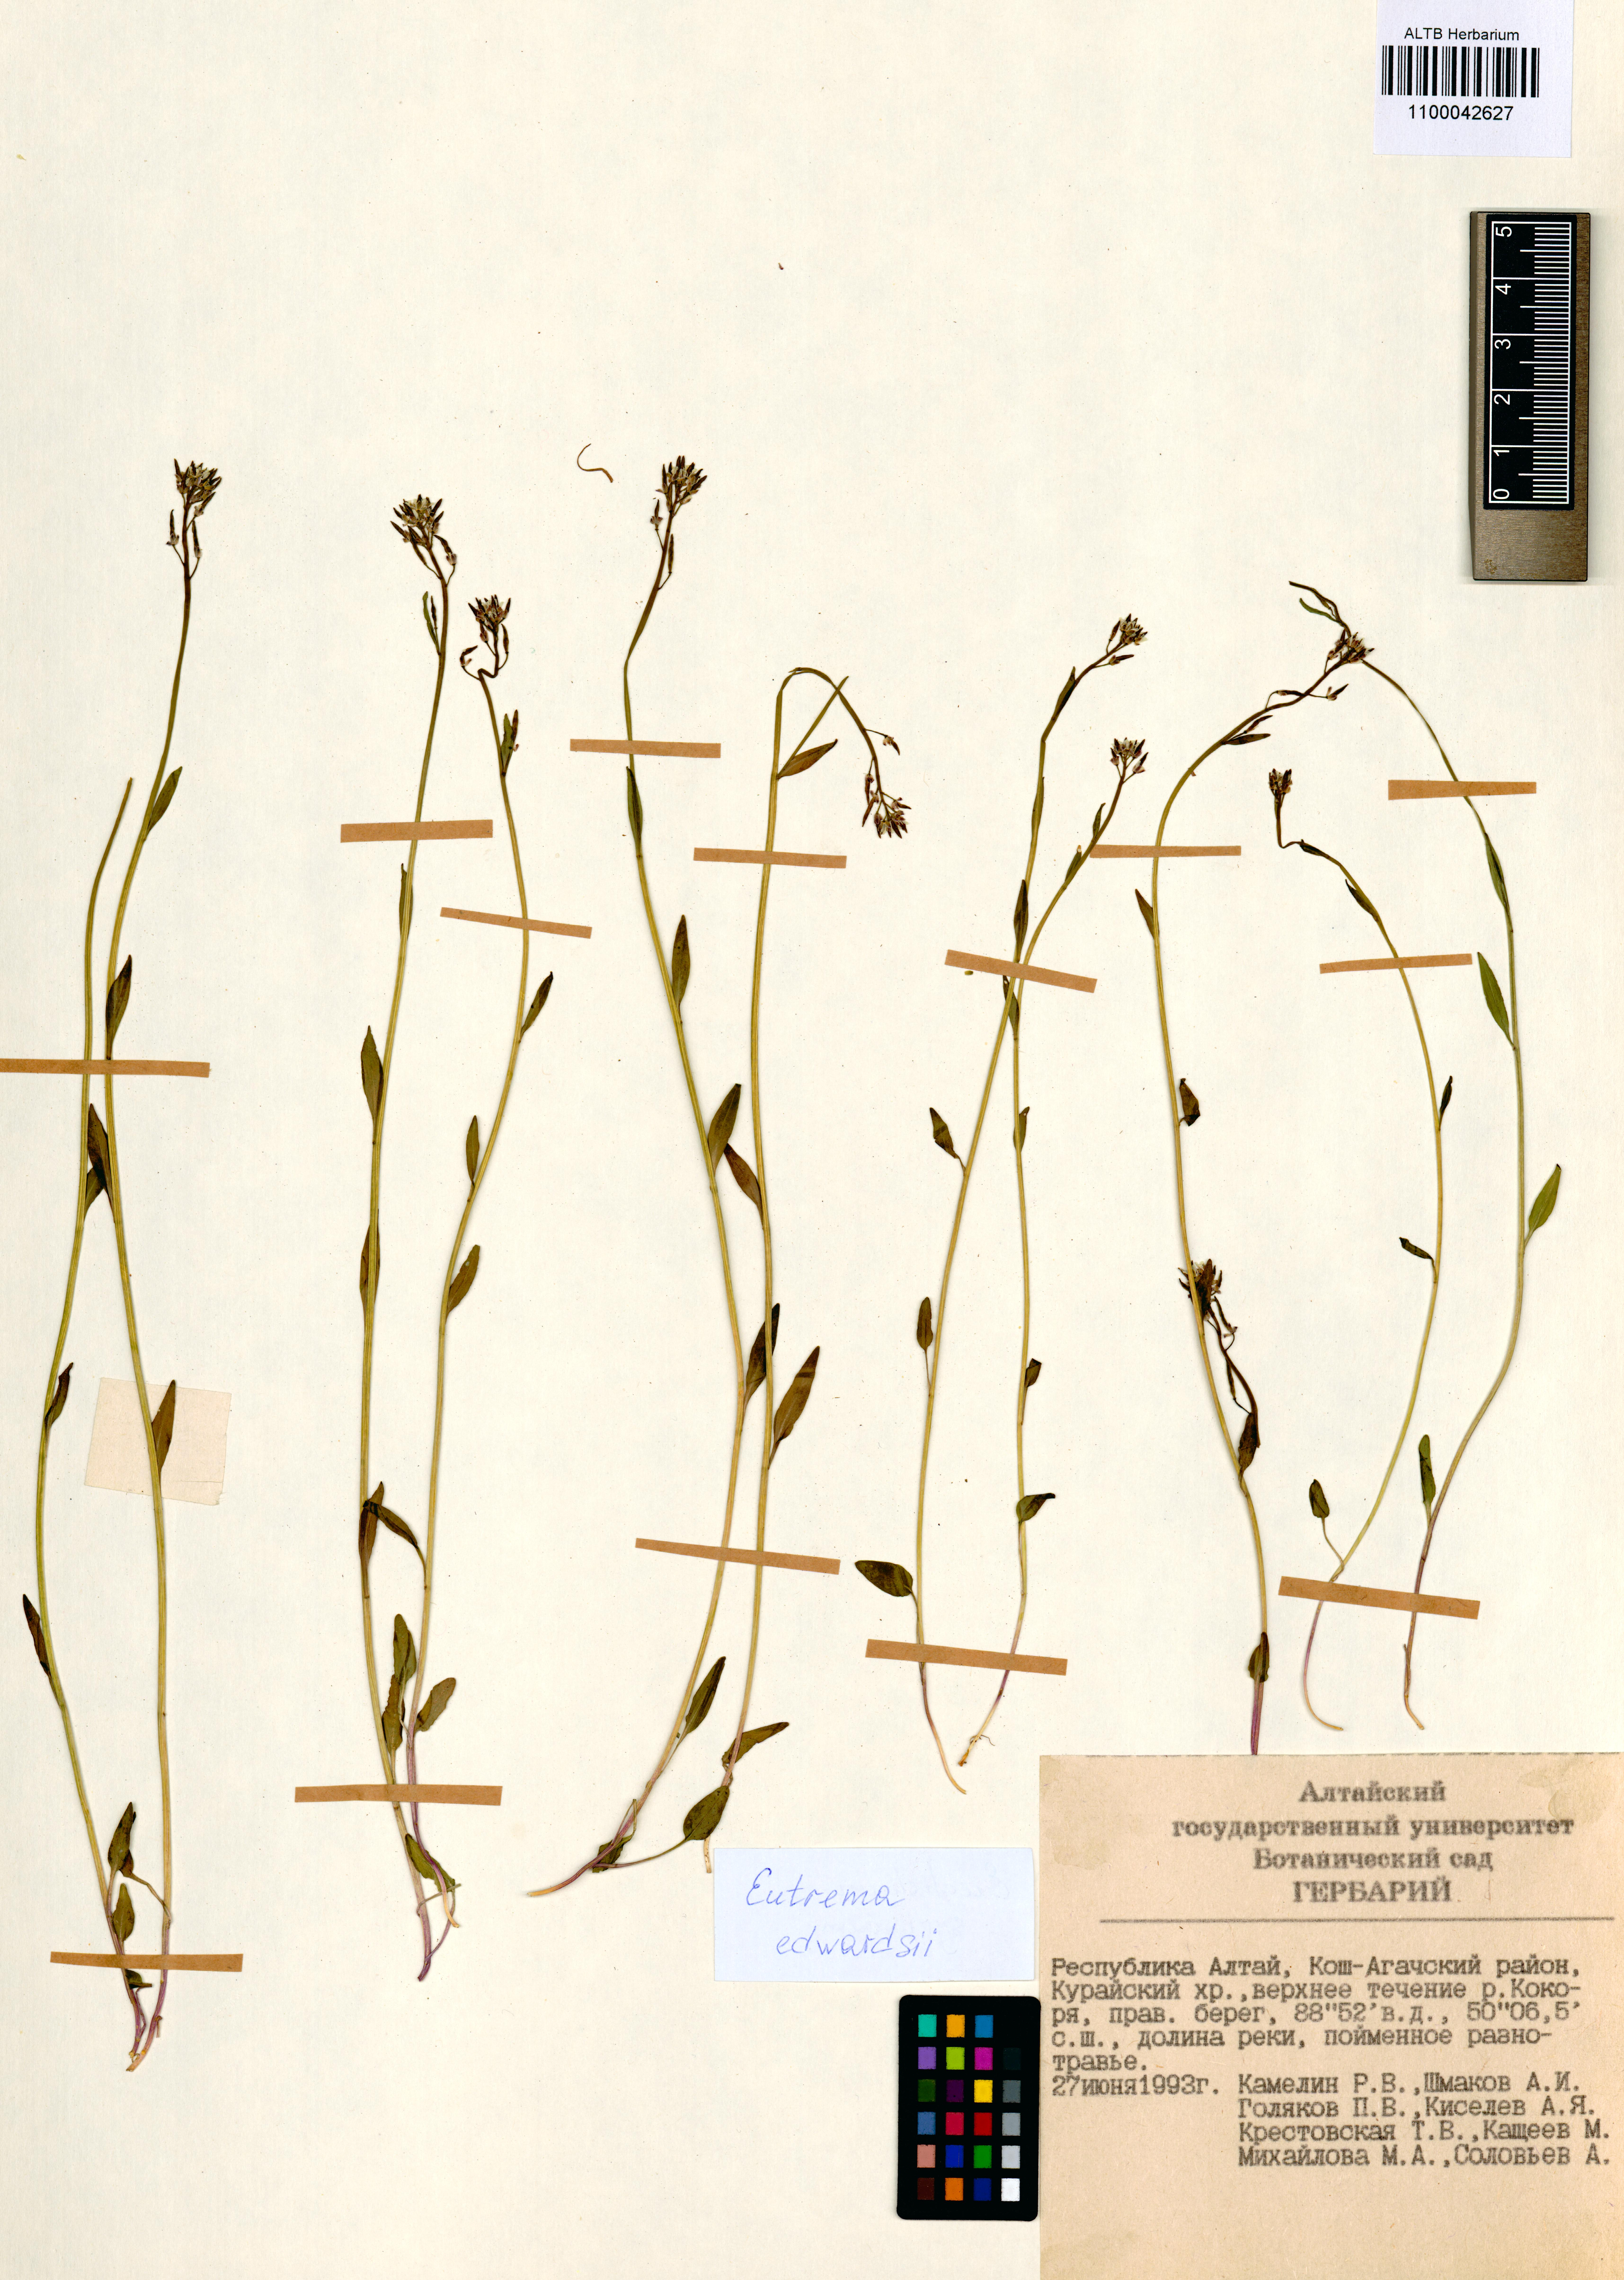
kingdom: Plantae
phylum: Tracheophyta
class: Magnoliopsida
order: Brassicales
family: Brassicaceae
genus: Eutrema
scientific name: Eutrema edwardsii
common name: Penland alpine fen mustard
